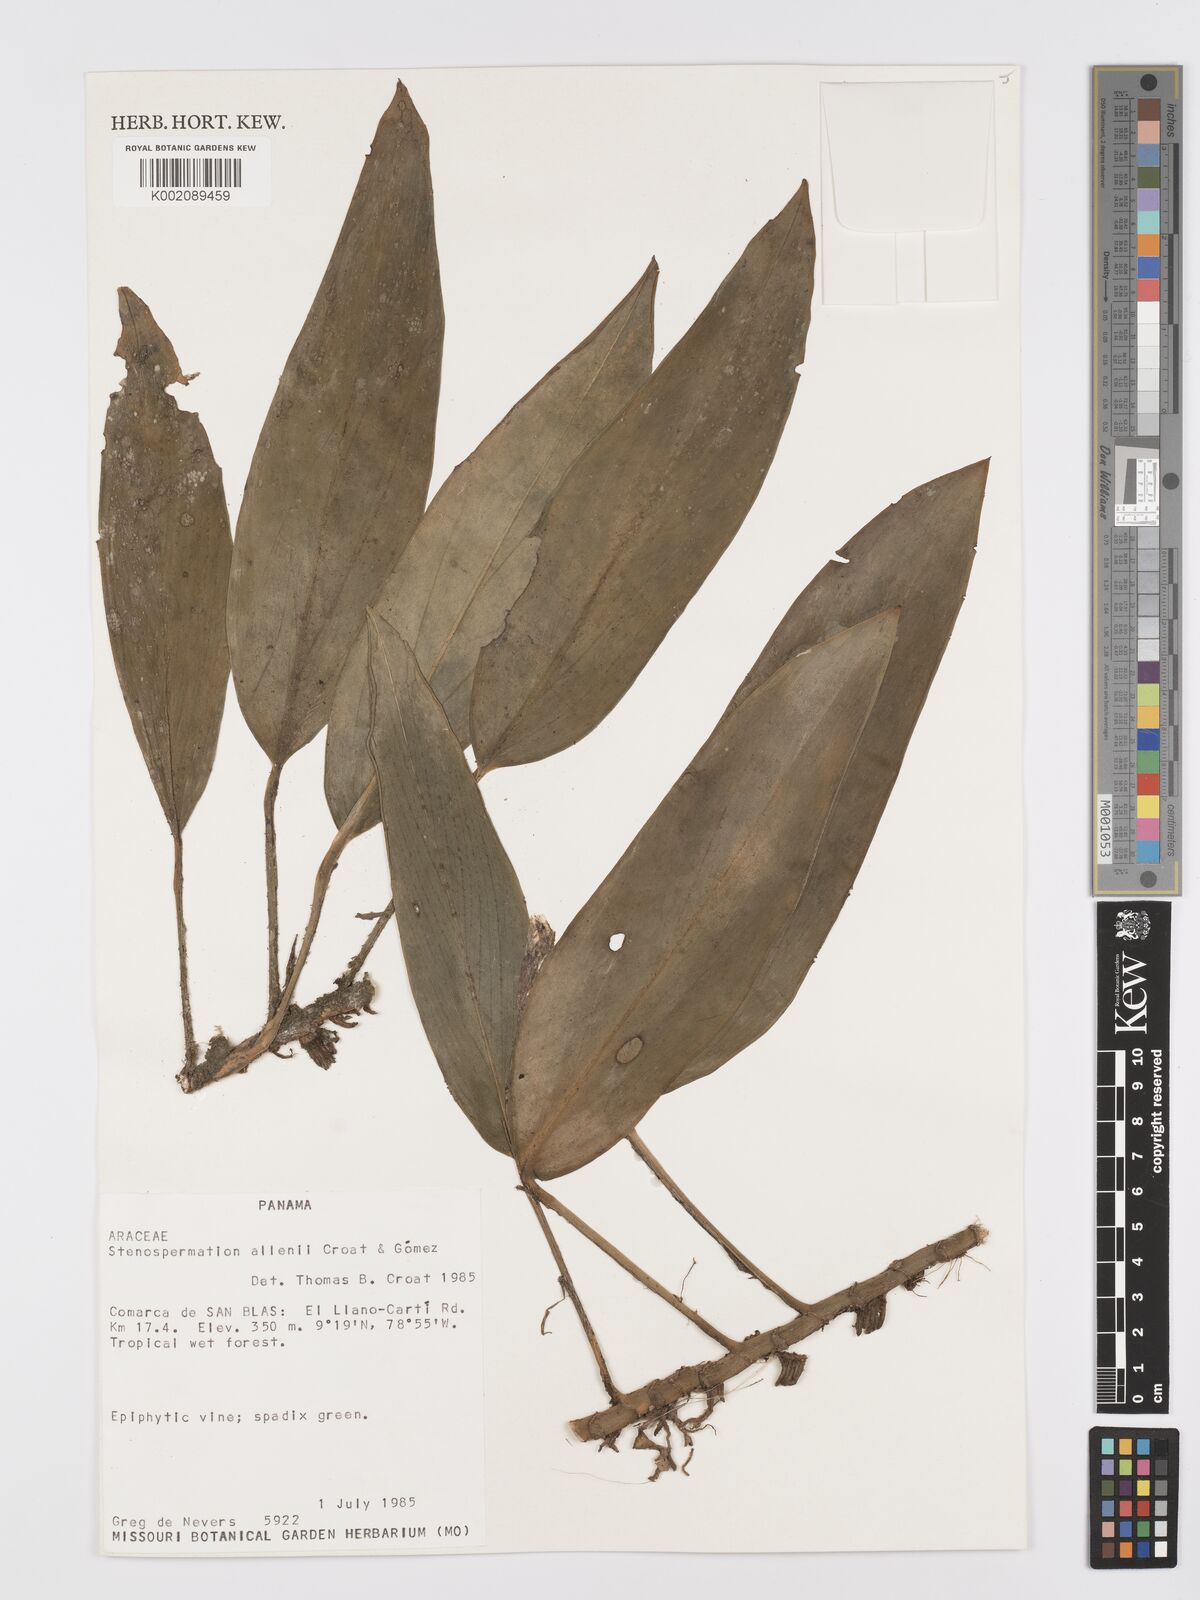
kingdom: Plantae
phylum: Tracheophyta
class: Liliopsida
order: Alismatales
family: Araceae
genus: Stenospermation
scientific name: Stenospermation
